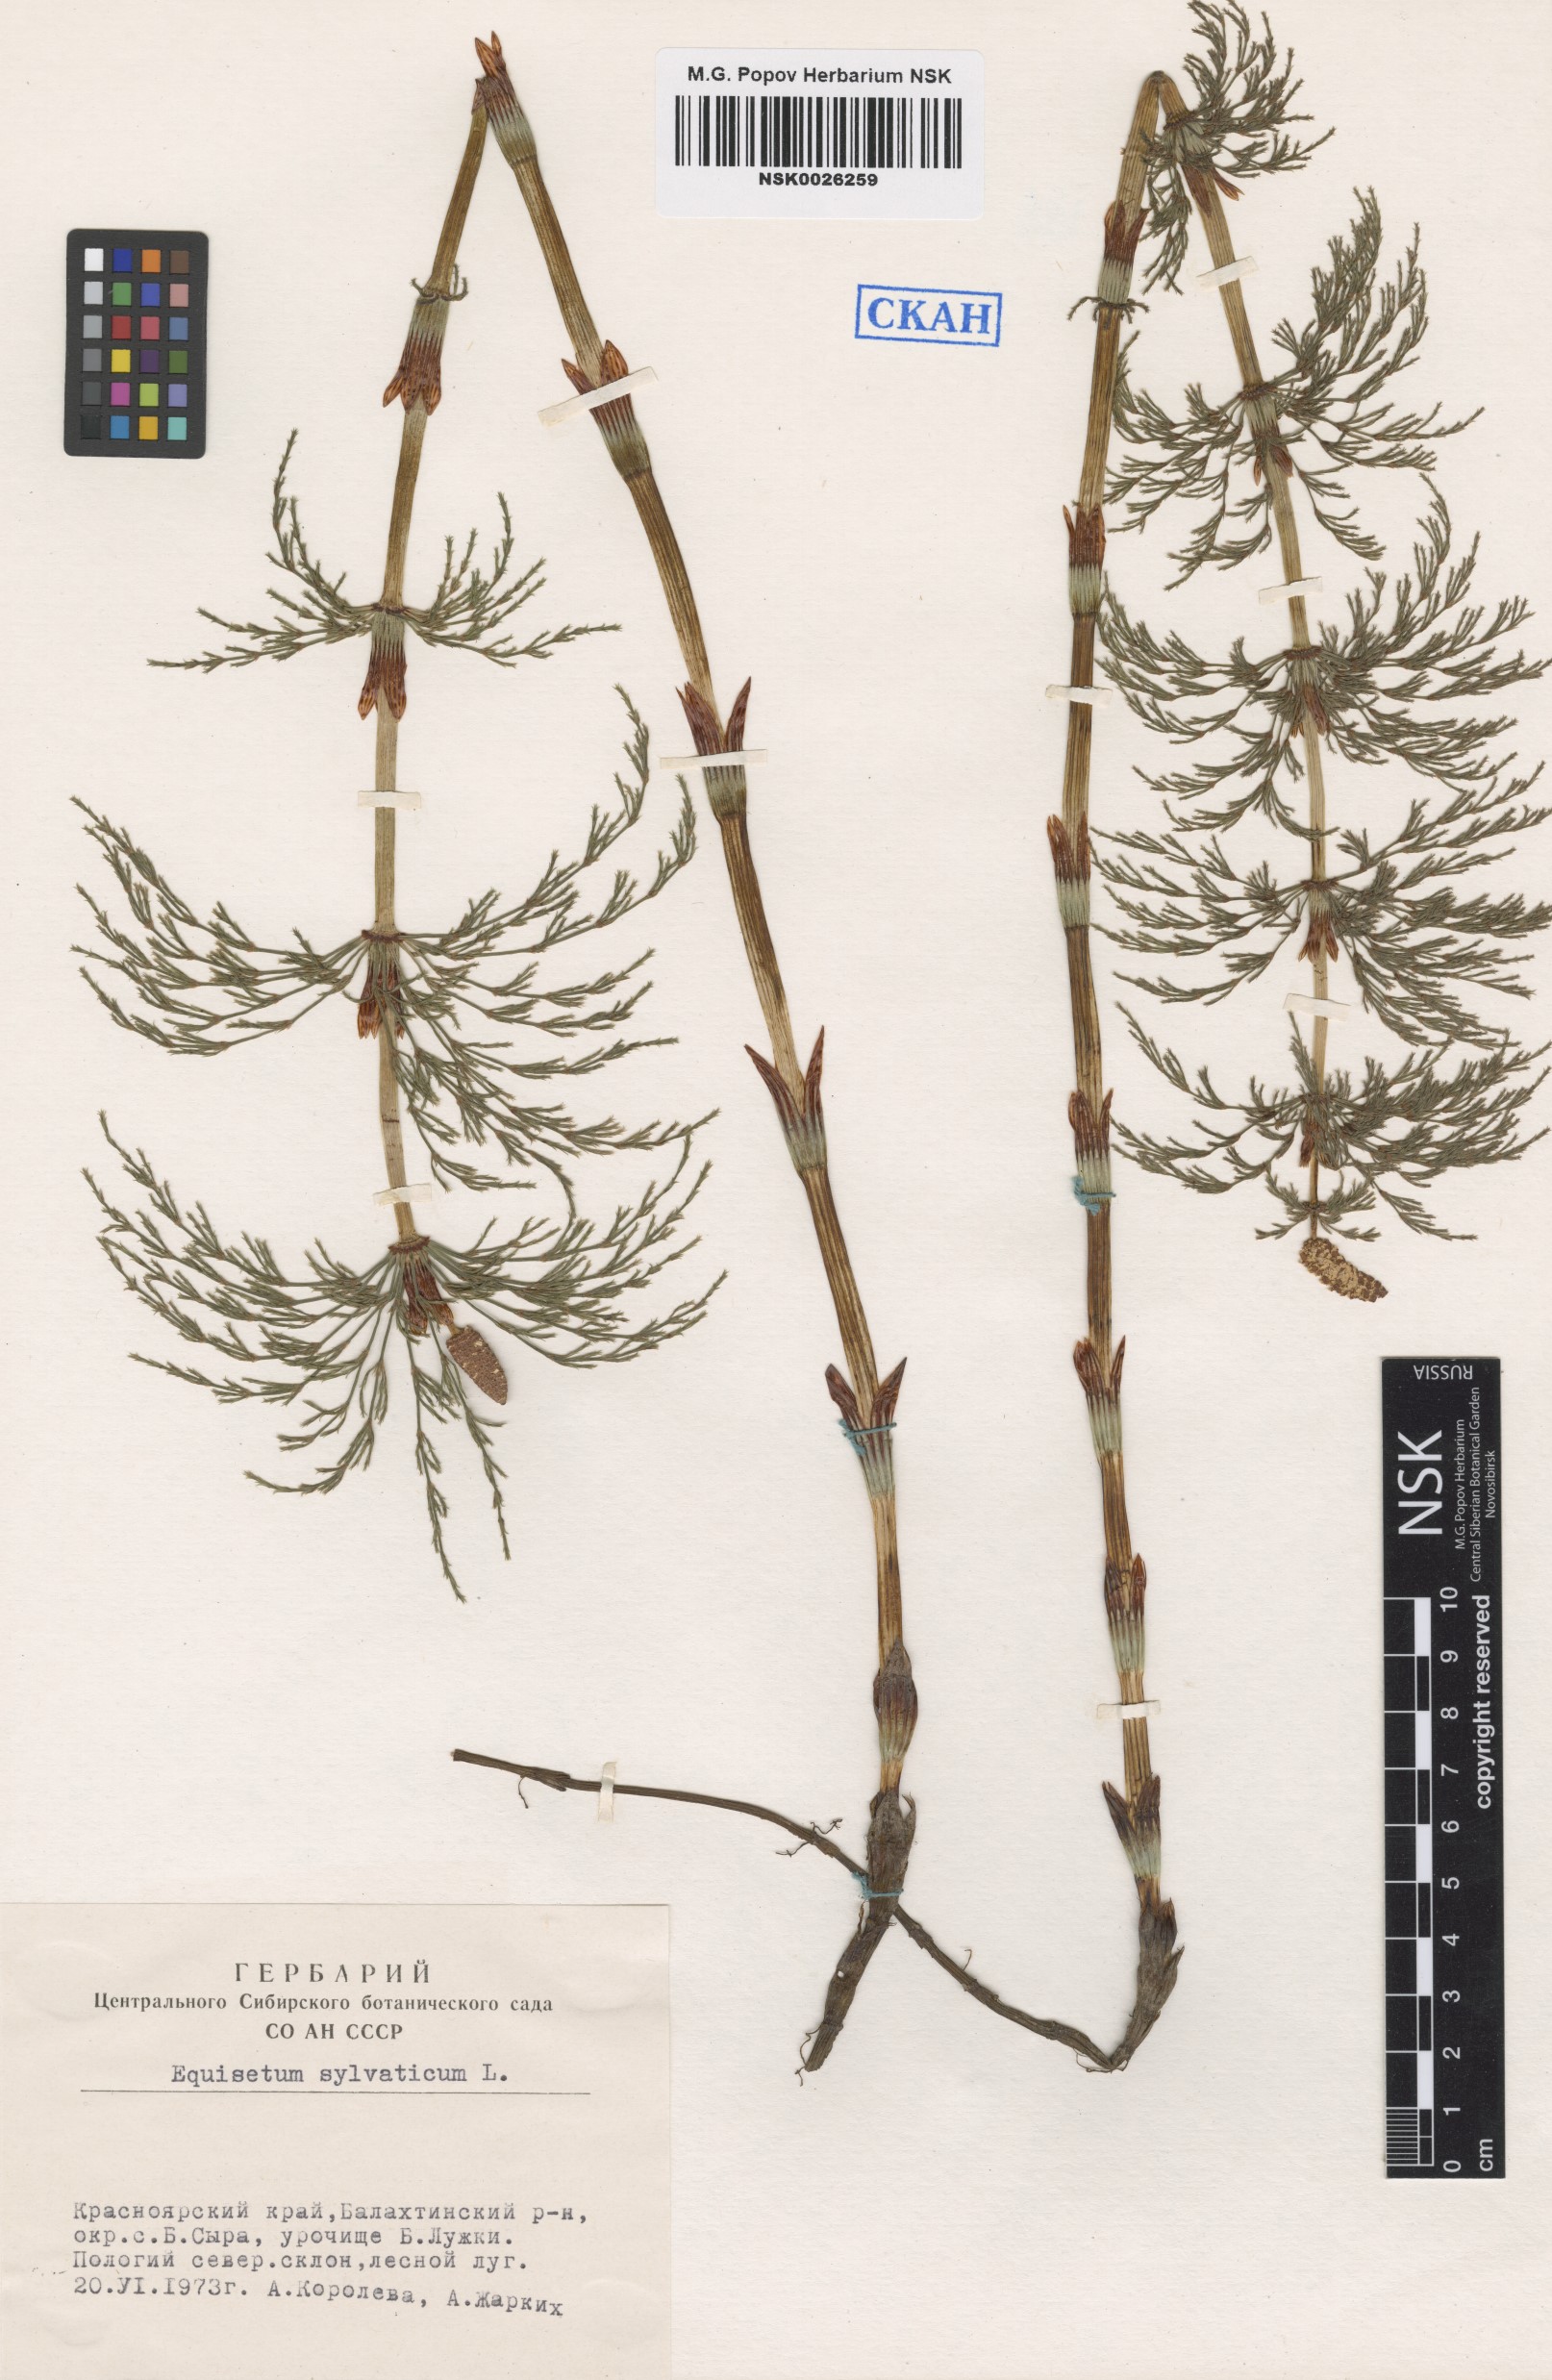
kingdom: Plantae
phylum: Tracheophyta
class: Polypodiopsida
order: Equisetales
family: Equisetaceae
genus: Equisetum
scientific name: Equisetum sylvaticum
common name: Wood horsetail
